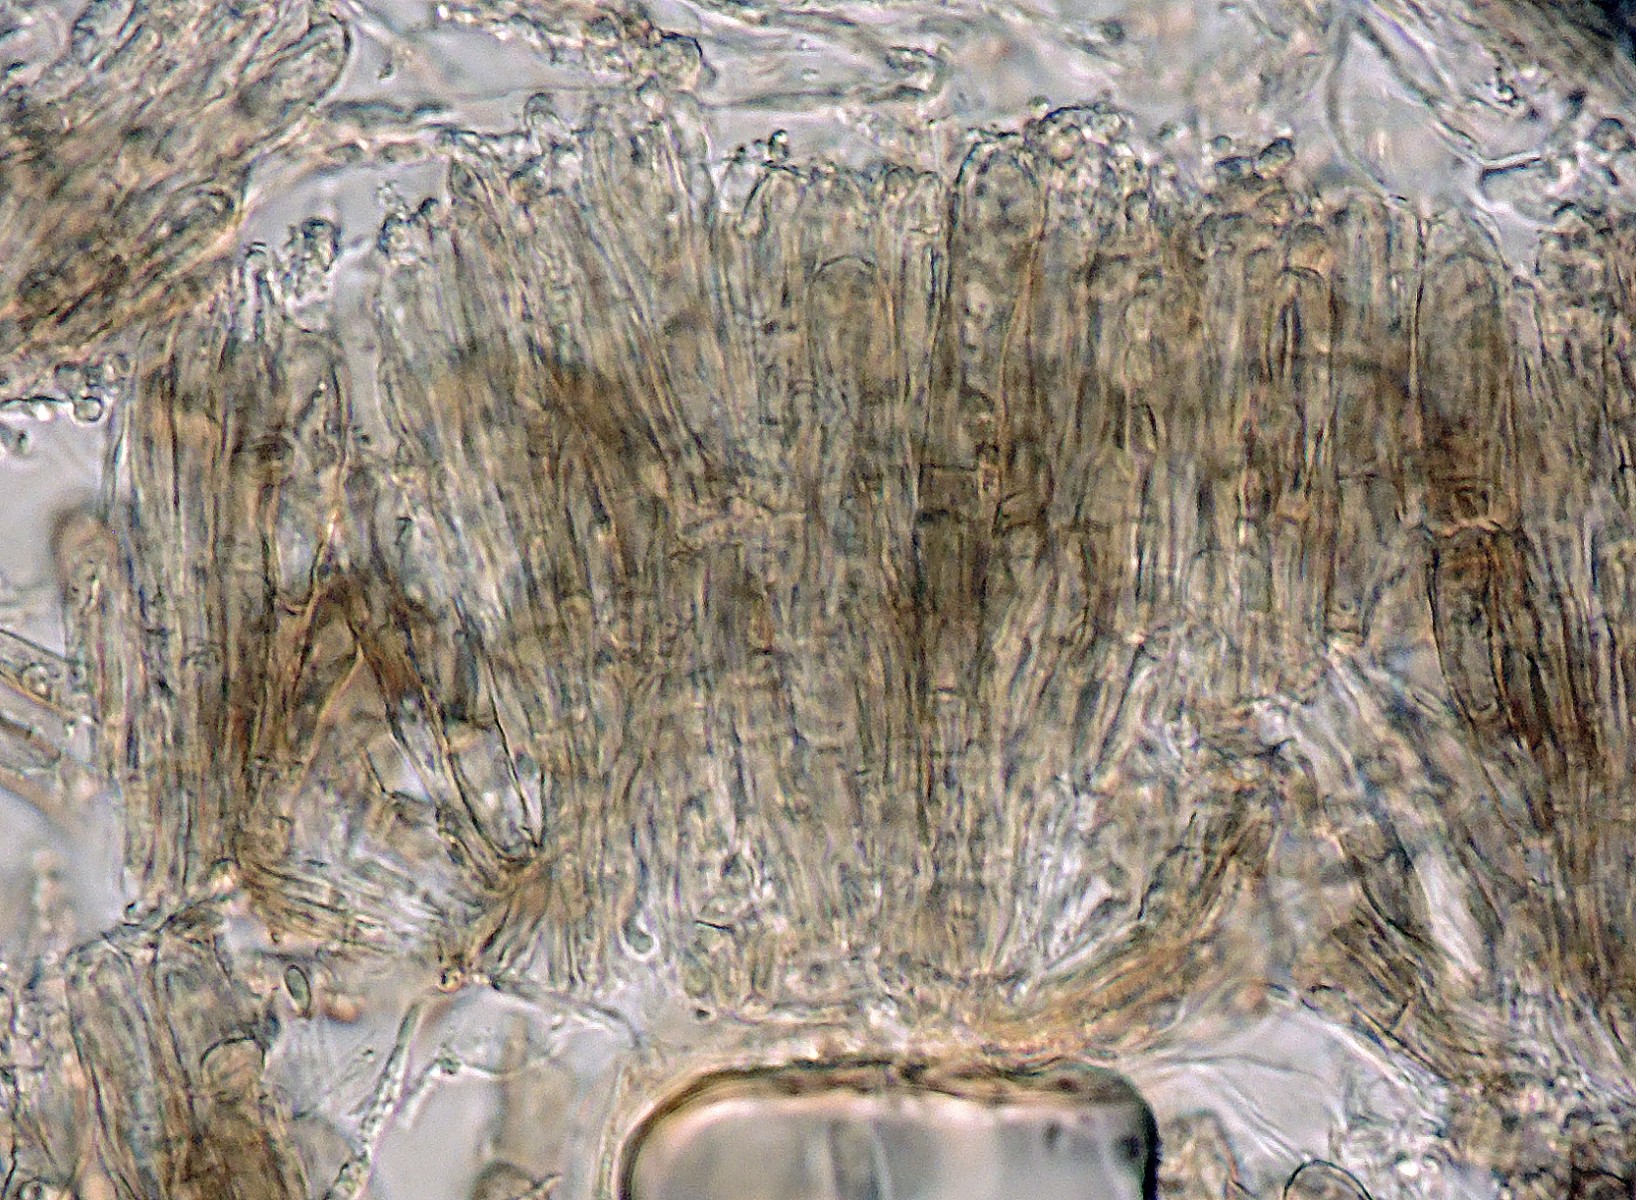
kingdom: Fungi
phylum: Ascomycota
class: Leotiomycetes
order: Helotiales
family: Mollisiaceae
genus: Mollisia
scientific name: Mollisia luctuosa
